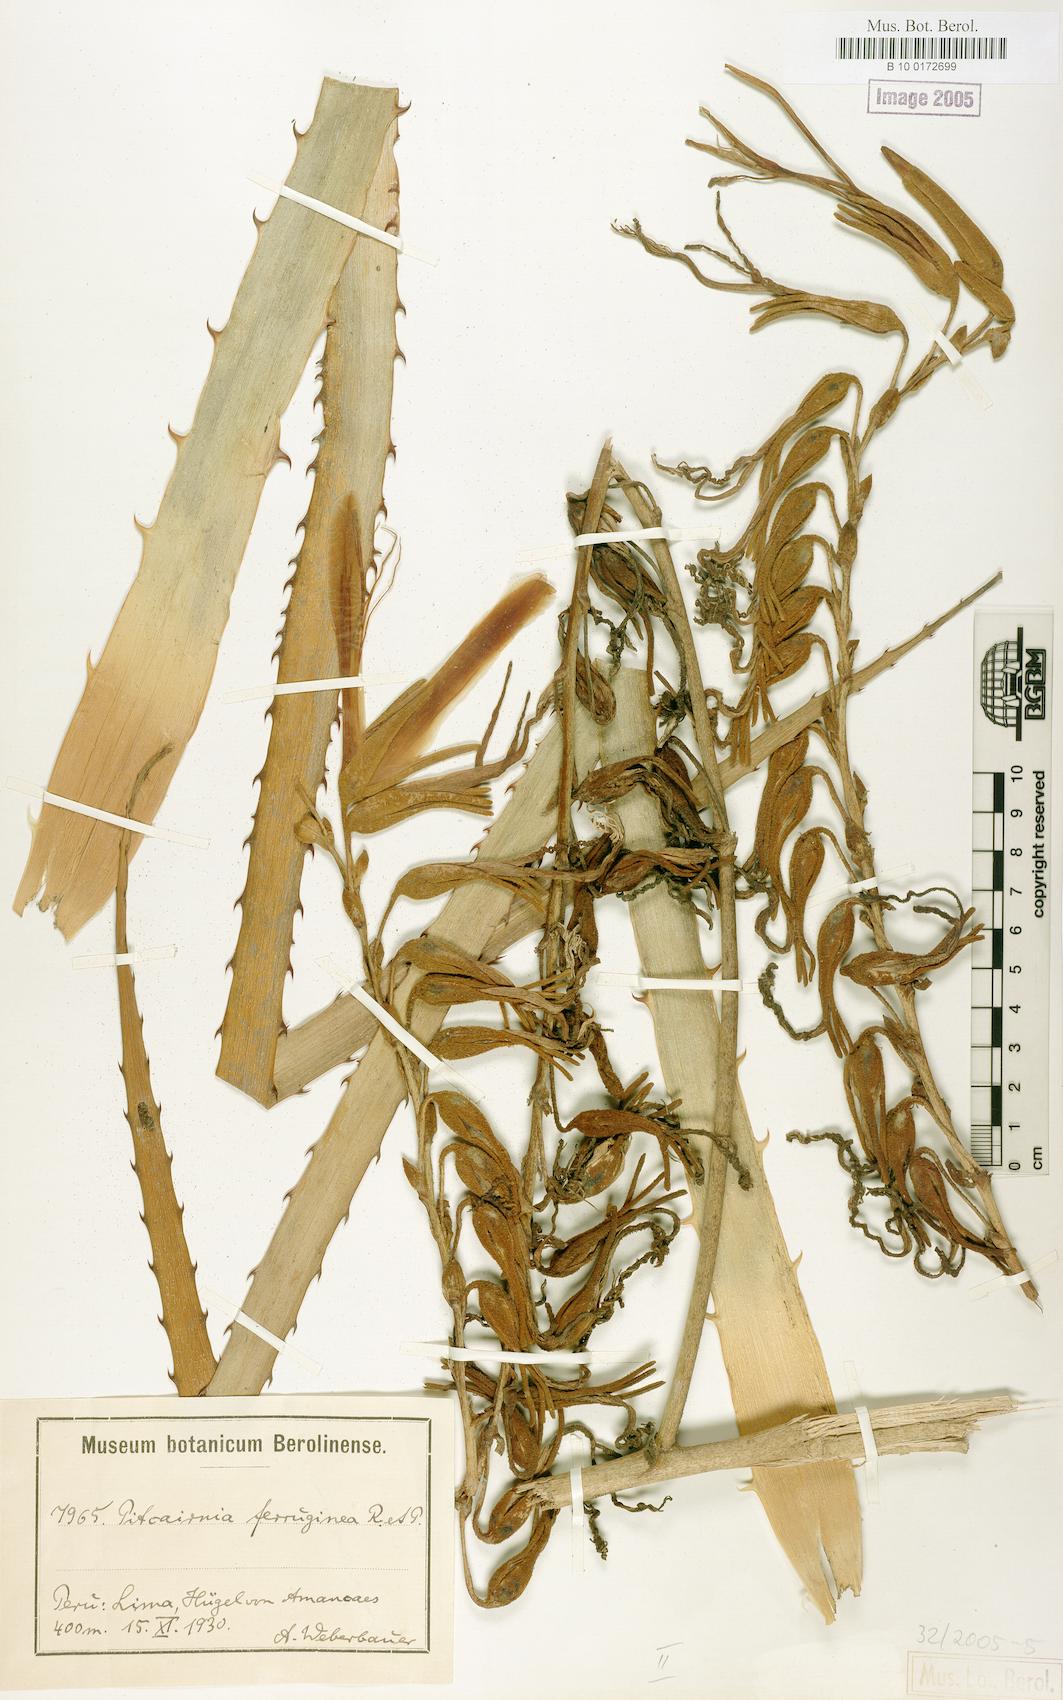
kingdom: Plantae
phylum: Tracheophyta
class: Liliopsida
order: Poales
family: Bromeliaceae
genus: Puya
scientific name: Puya ferruginea
